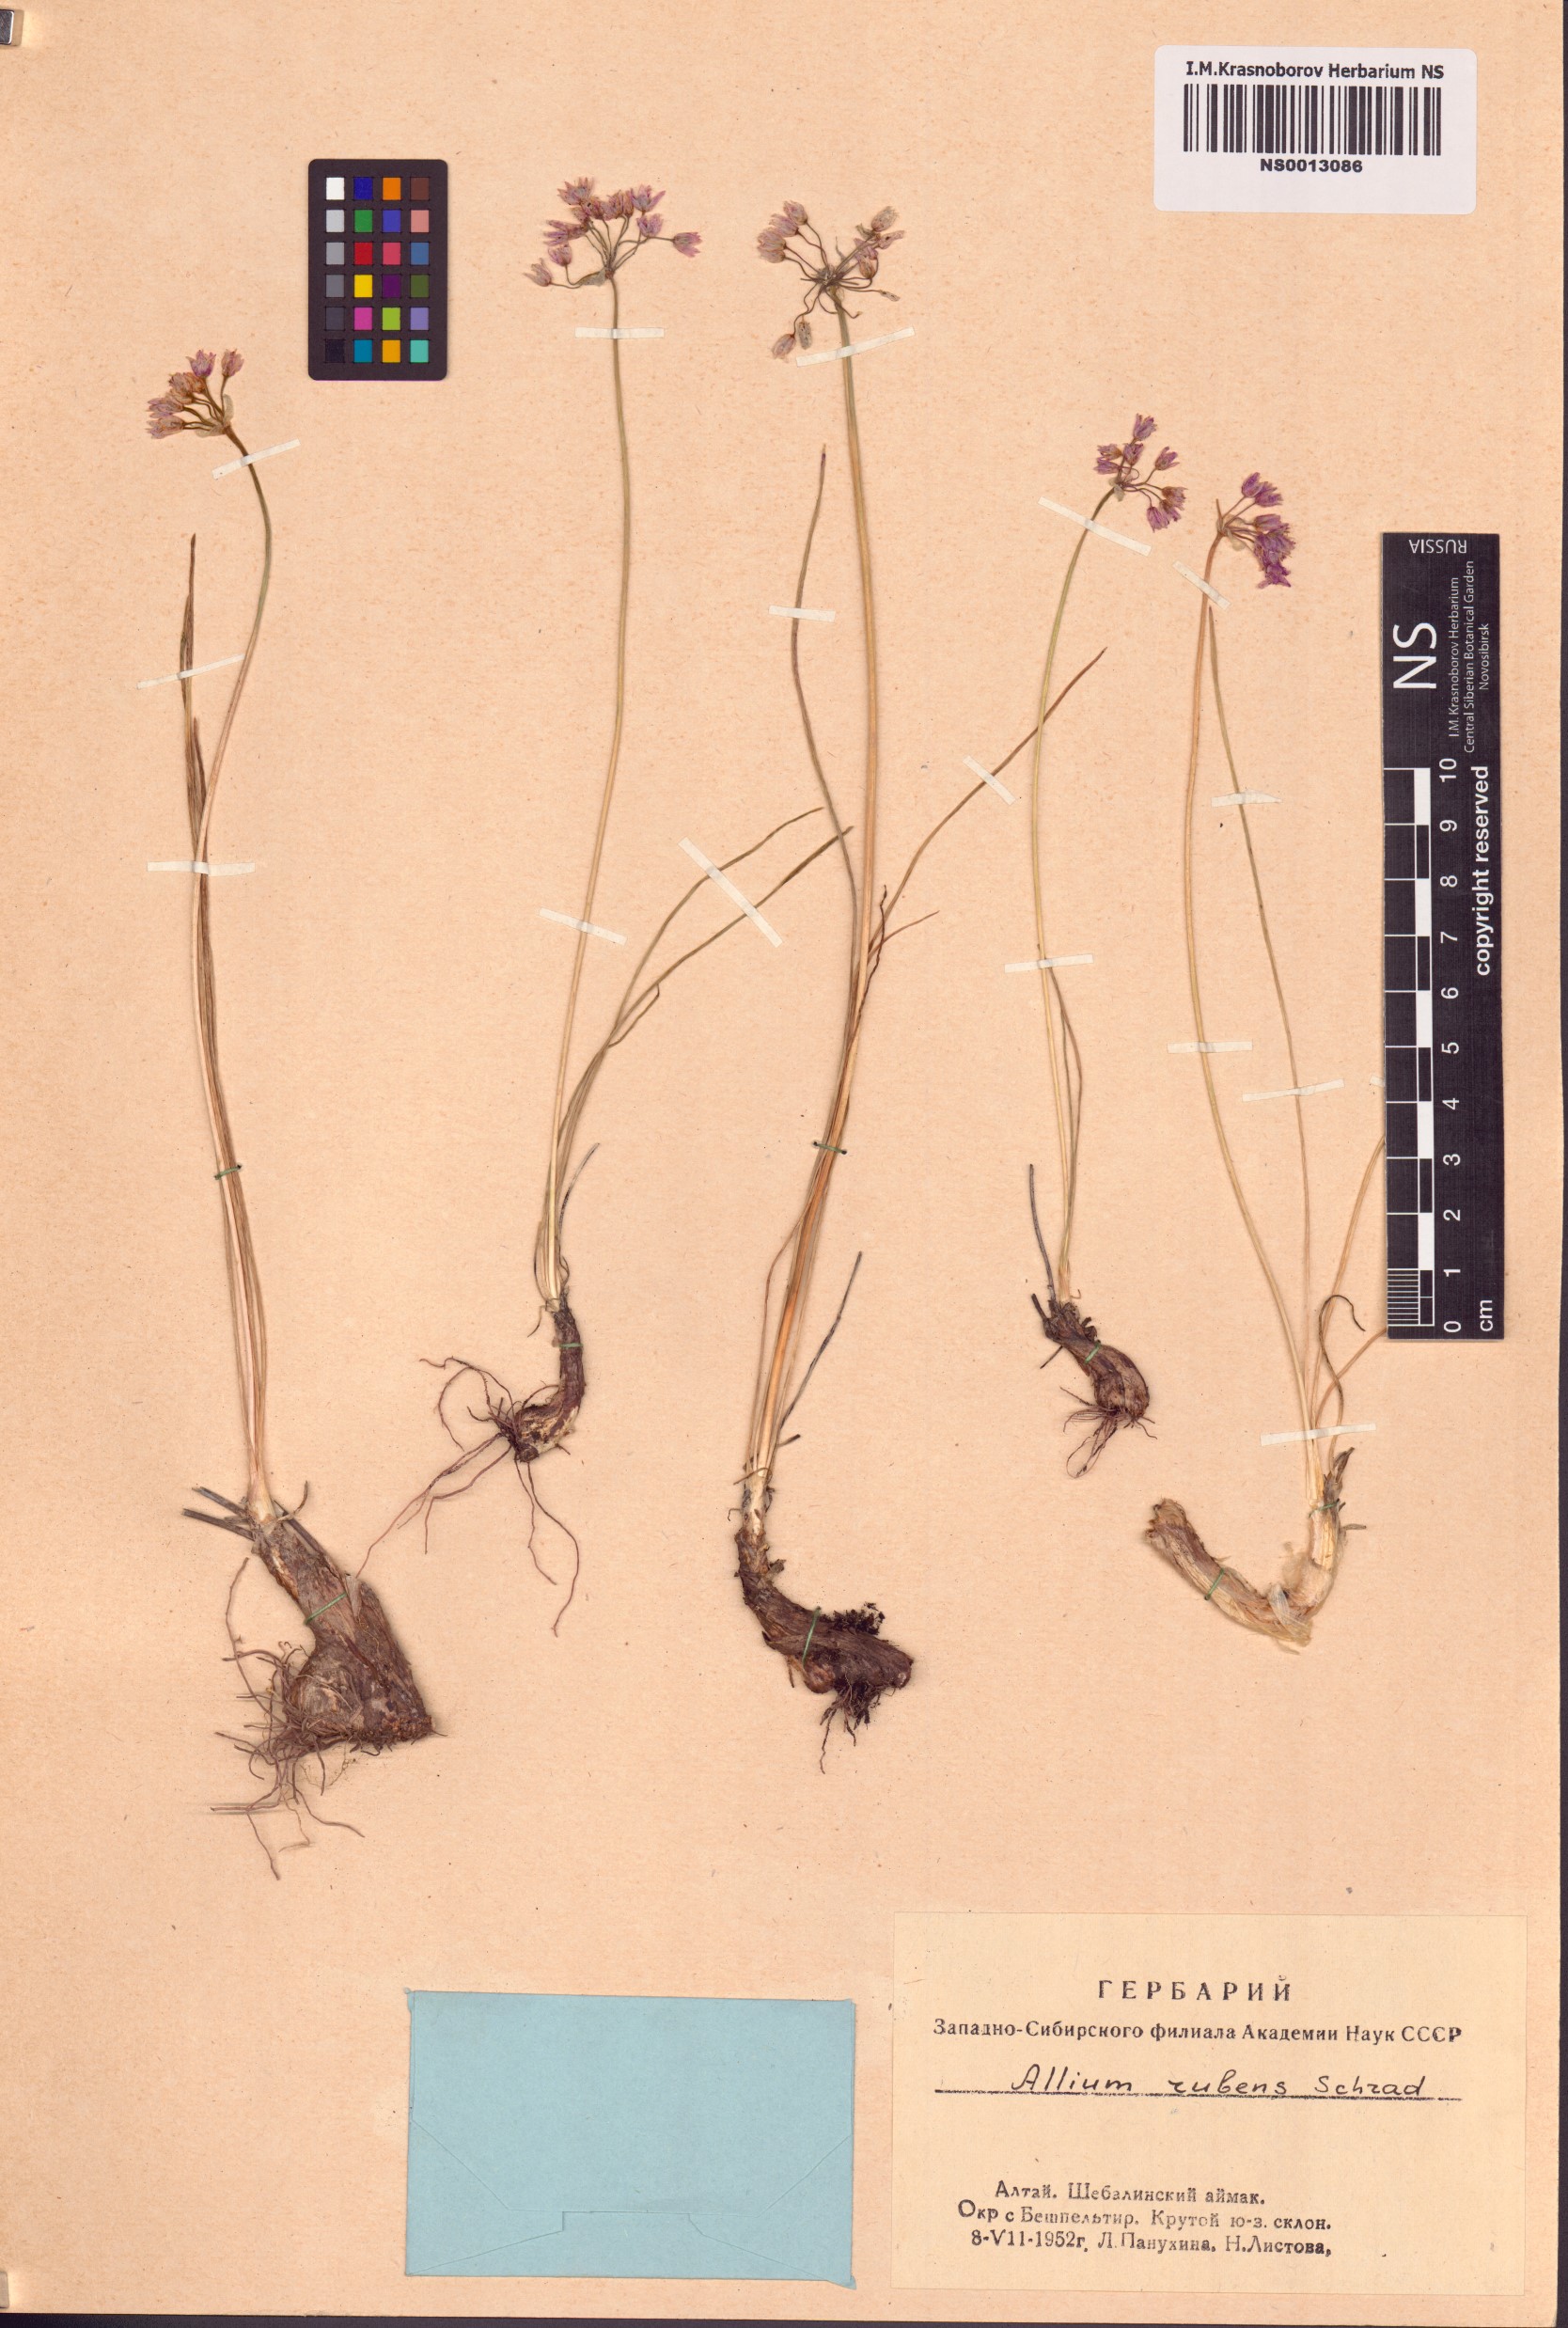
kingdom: Plantae
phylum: Tracheophyta
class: Liliopsida
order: Asparagales
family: Amaryllidaceae
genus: Allium
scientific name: Allium rubens
